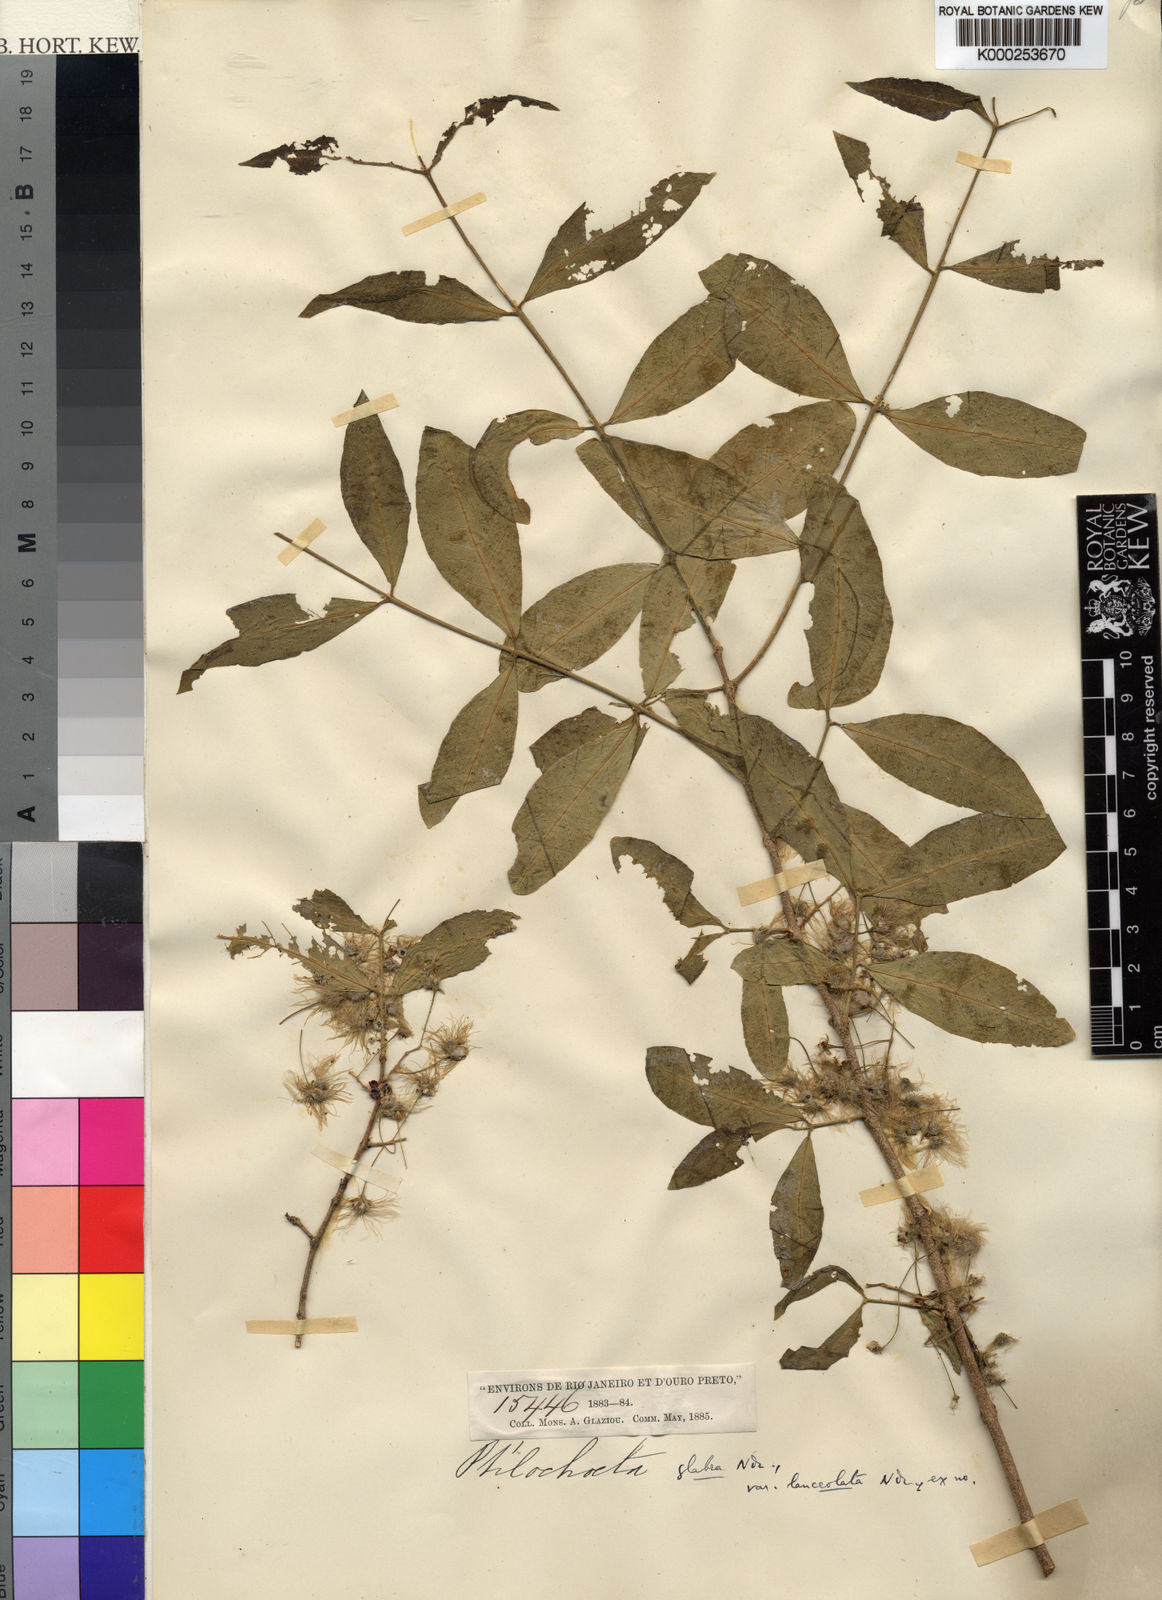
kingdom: Plantae
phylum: Tracheophyta
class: Magnoliopsida
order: Malpighiales
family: Malpighiaceae
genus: Ptilochaeta
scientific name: Ptilochaeta glabra
